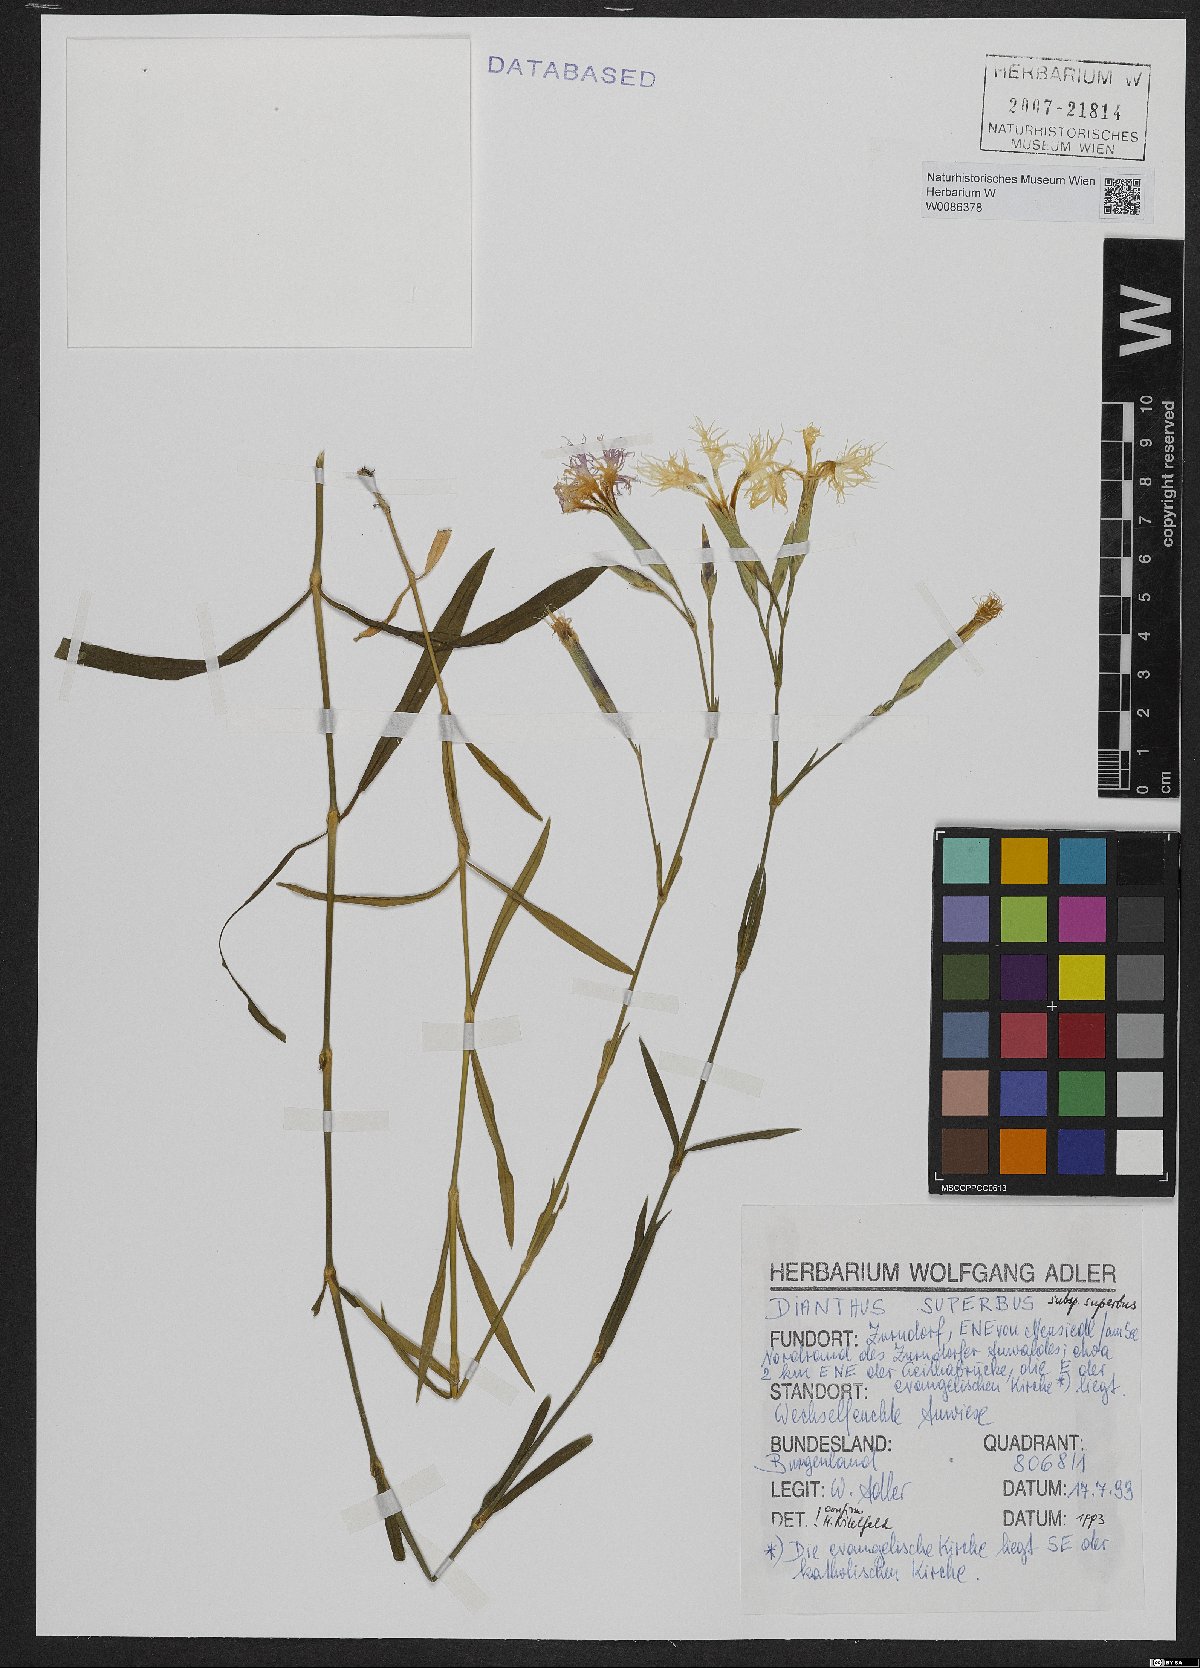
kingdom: Plantae
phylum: Tracheophyta
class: Magnoliopsida
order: Caryophyllales
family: Caryophyllaceae
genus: Dianthus
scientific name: Dianthus superbus
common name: Fringed pink
